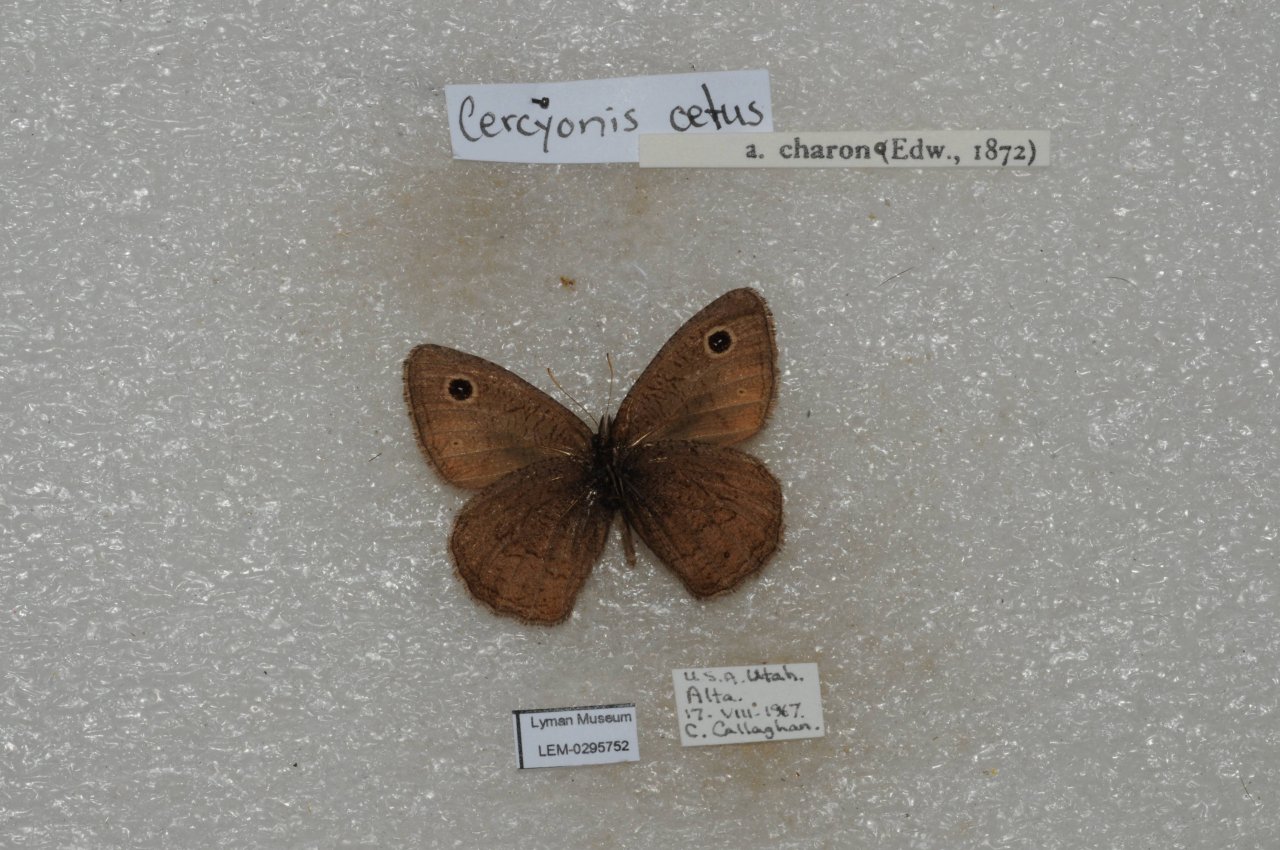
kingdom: Animalia
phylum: Arthropoda
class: Insecta
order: Lepidoptera
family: Nymphalidae
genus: Cercyonis
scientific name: Cercyonis oetus
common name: Small Wood-Nymph
